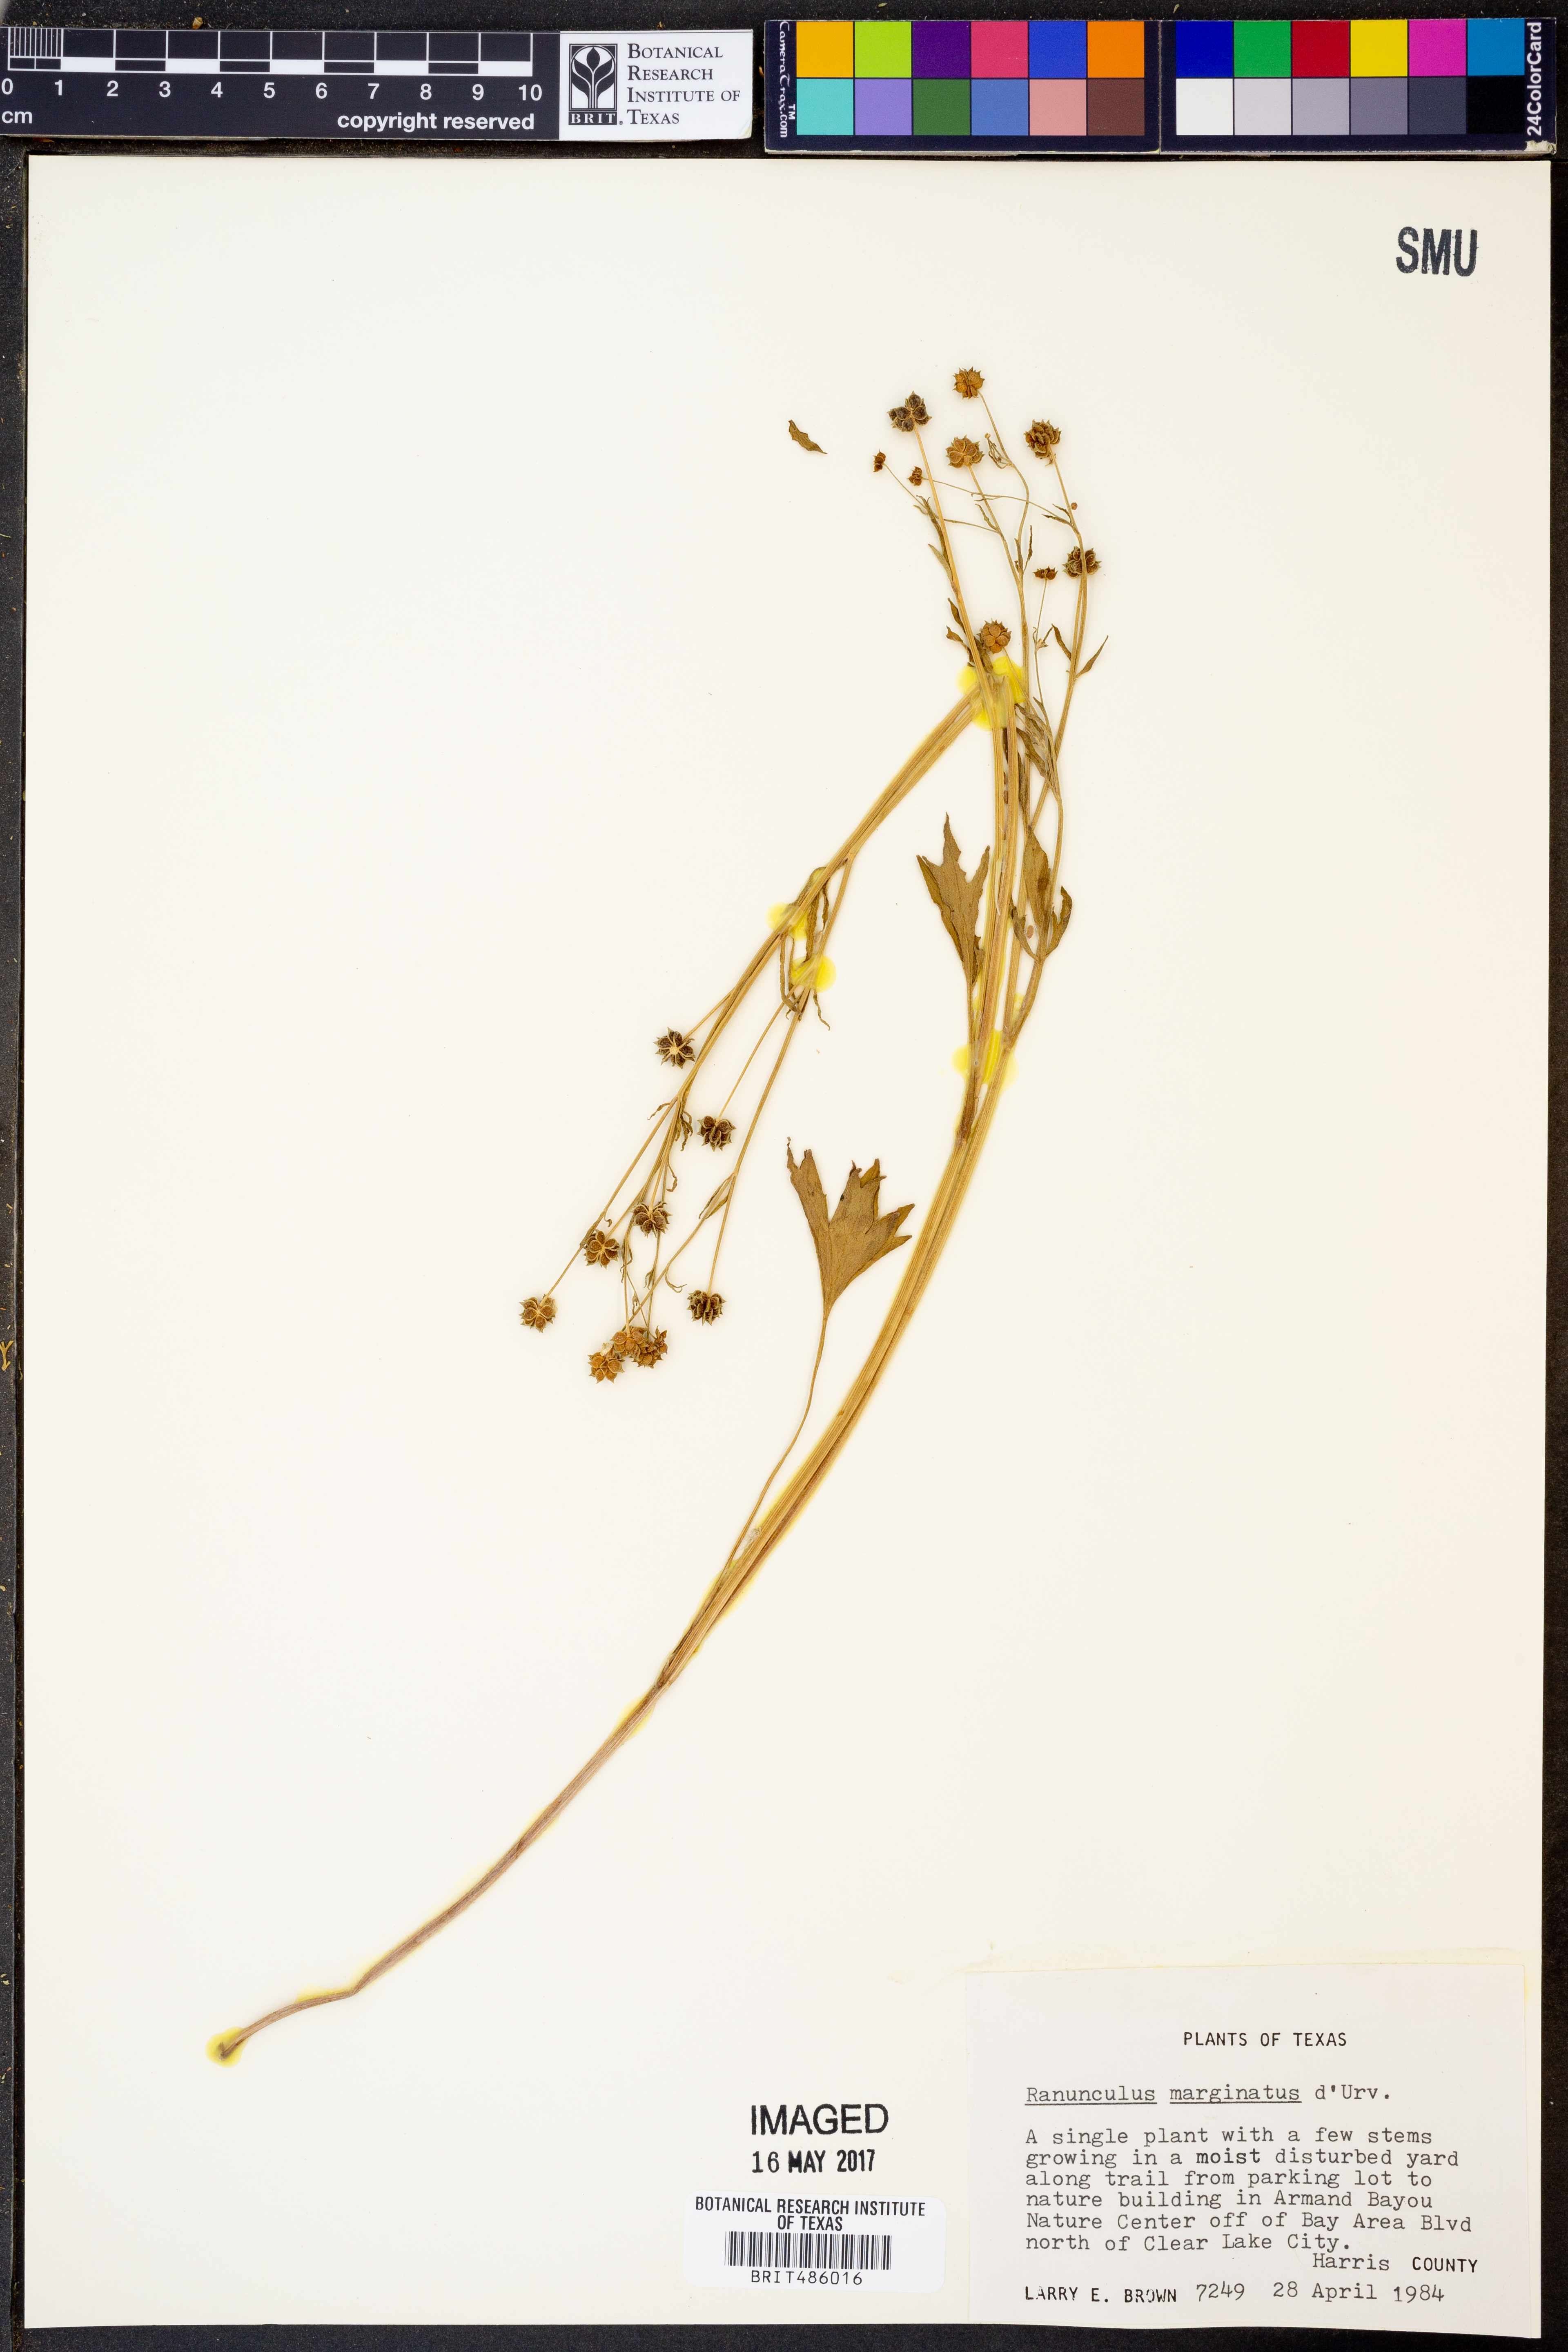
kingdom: Plantae
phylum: Tracheophyta
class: Magnoliopsida
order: Ranunculales
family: Ranunculaceae
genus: Ranunculus
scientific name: Ranunculus marginatus
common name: St. martin's buttercup
